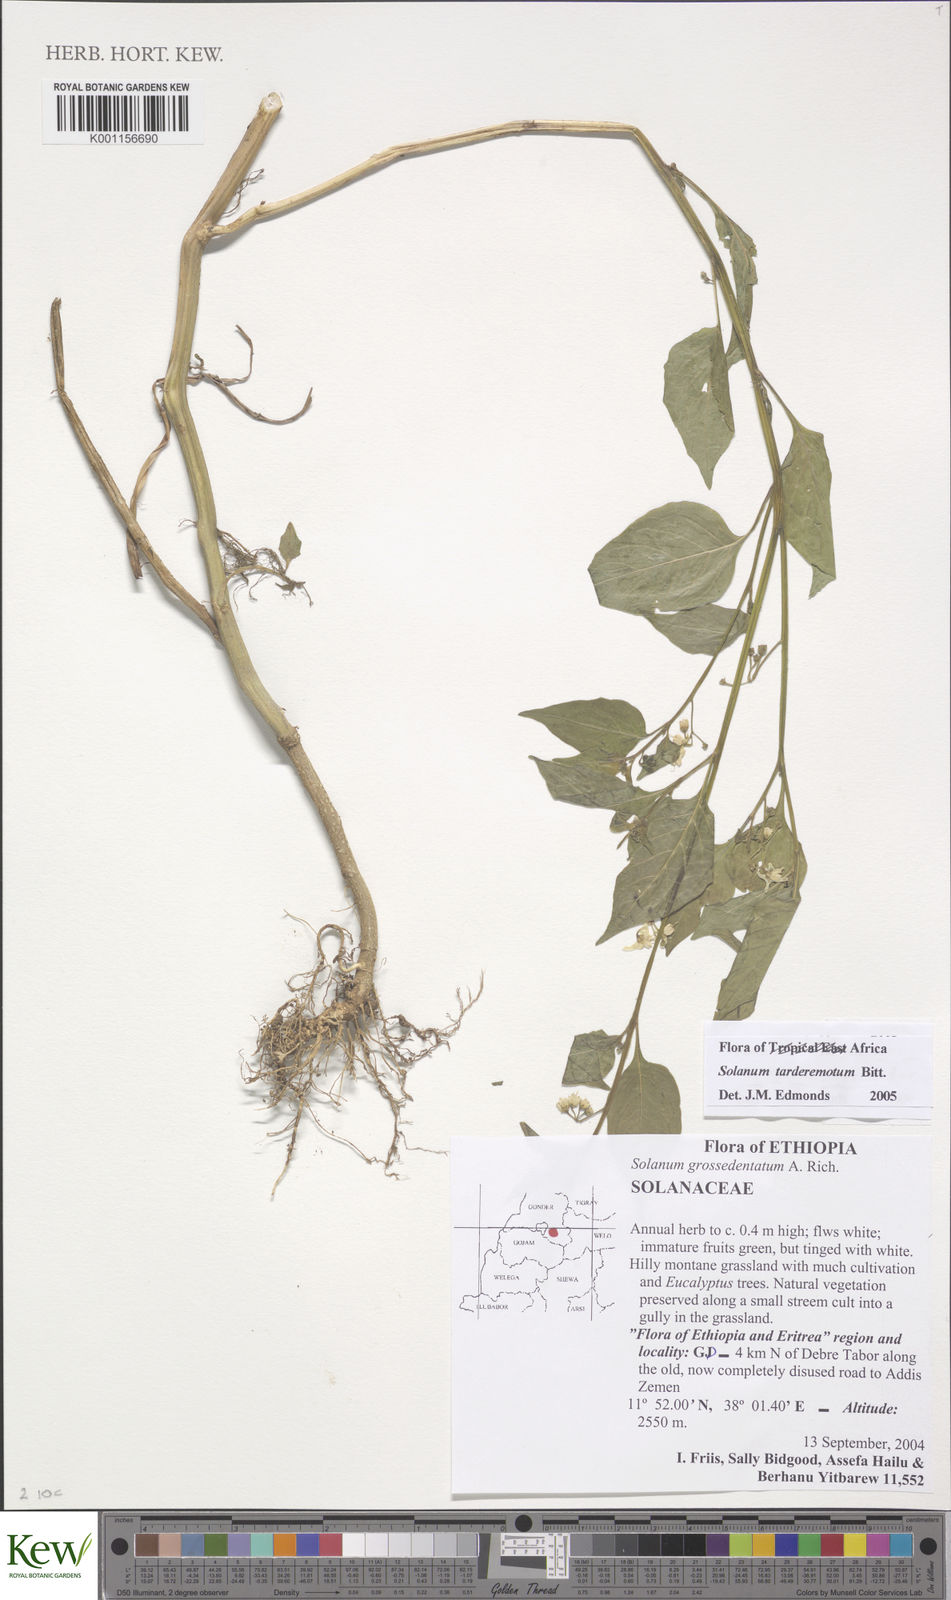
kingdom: Plantae
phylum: Tracheophyta
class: Magnoliopsida
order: Solanales
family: Solanaceae
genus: Solanum
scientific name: Solanum tarderemotum
